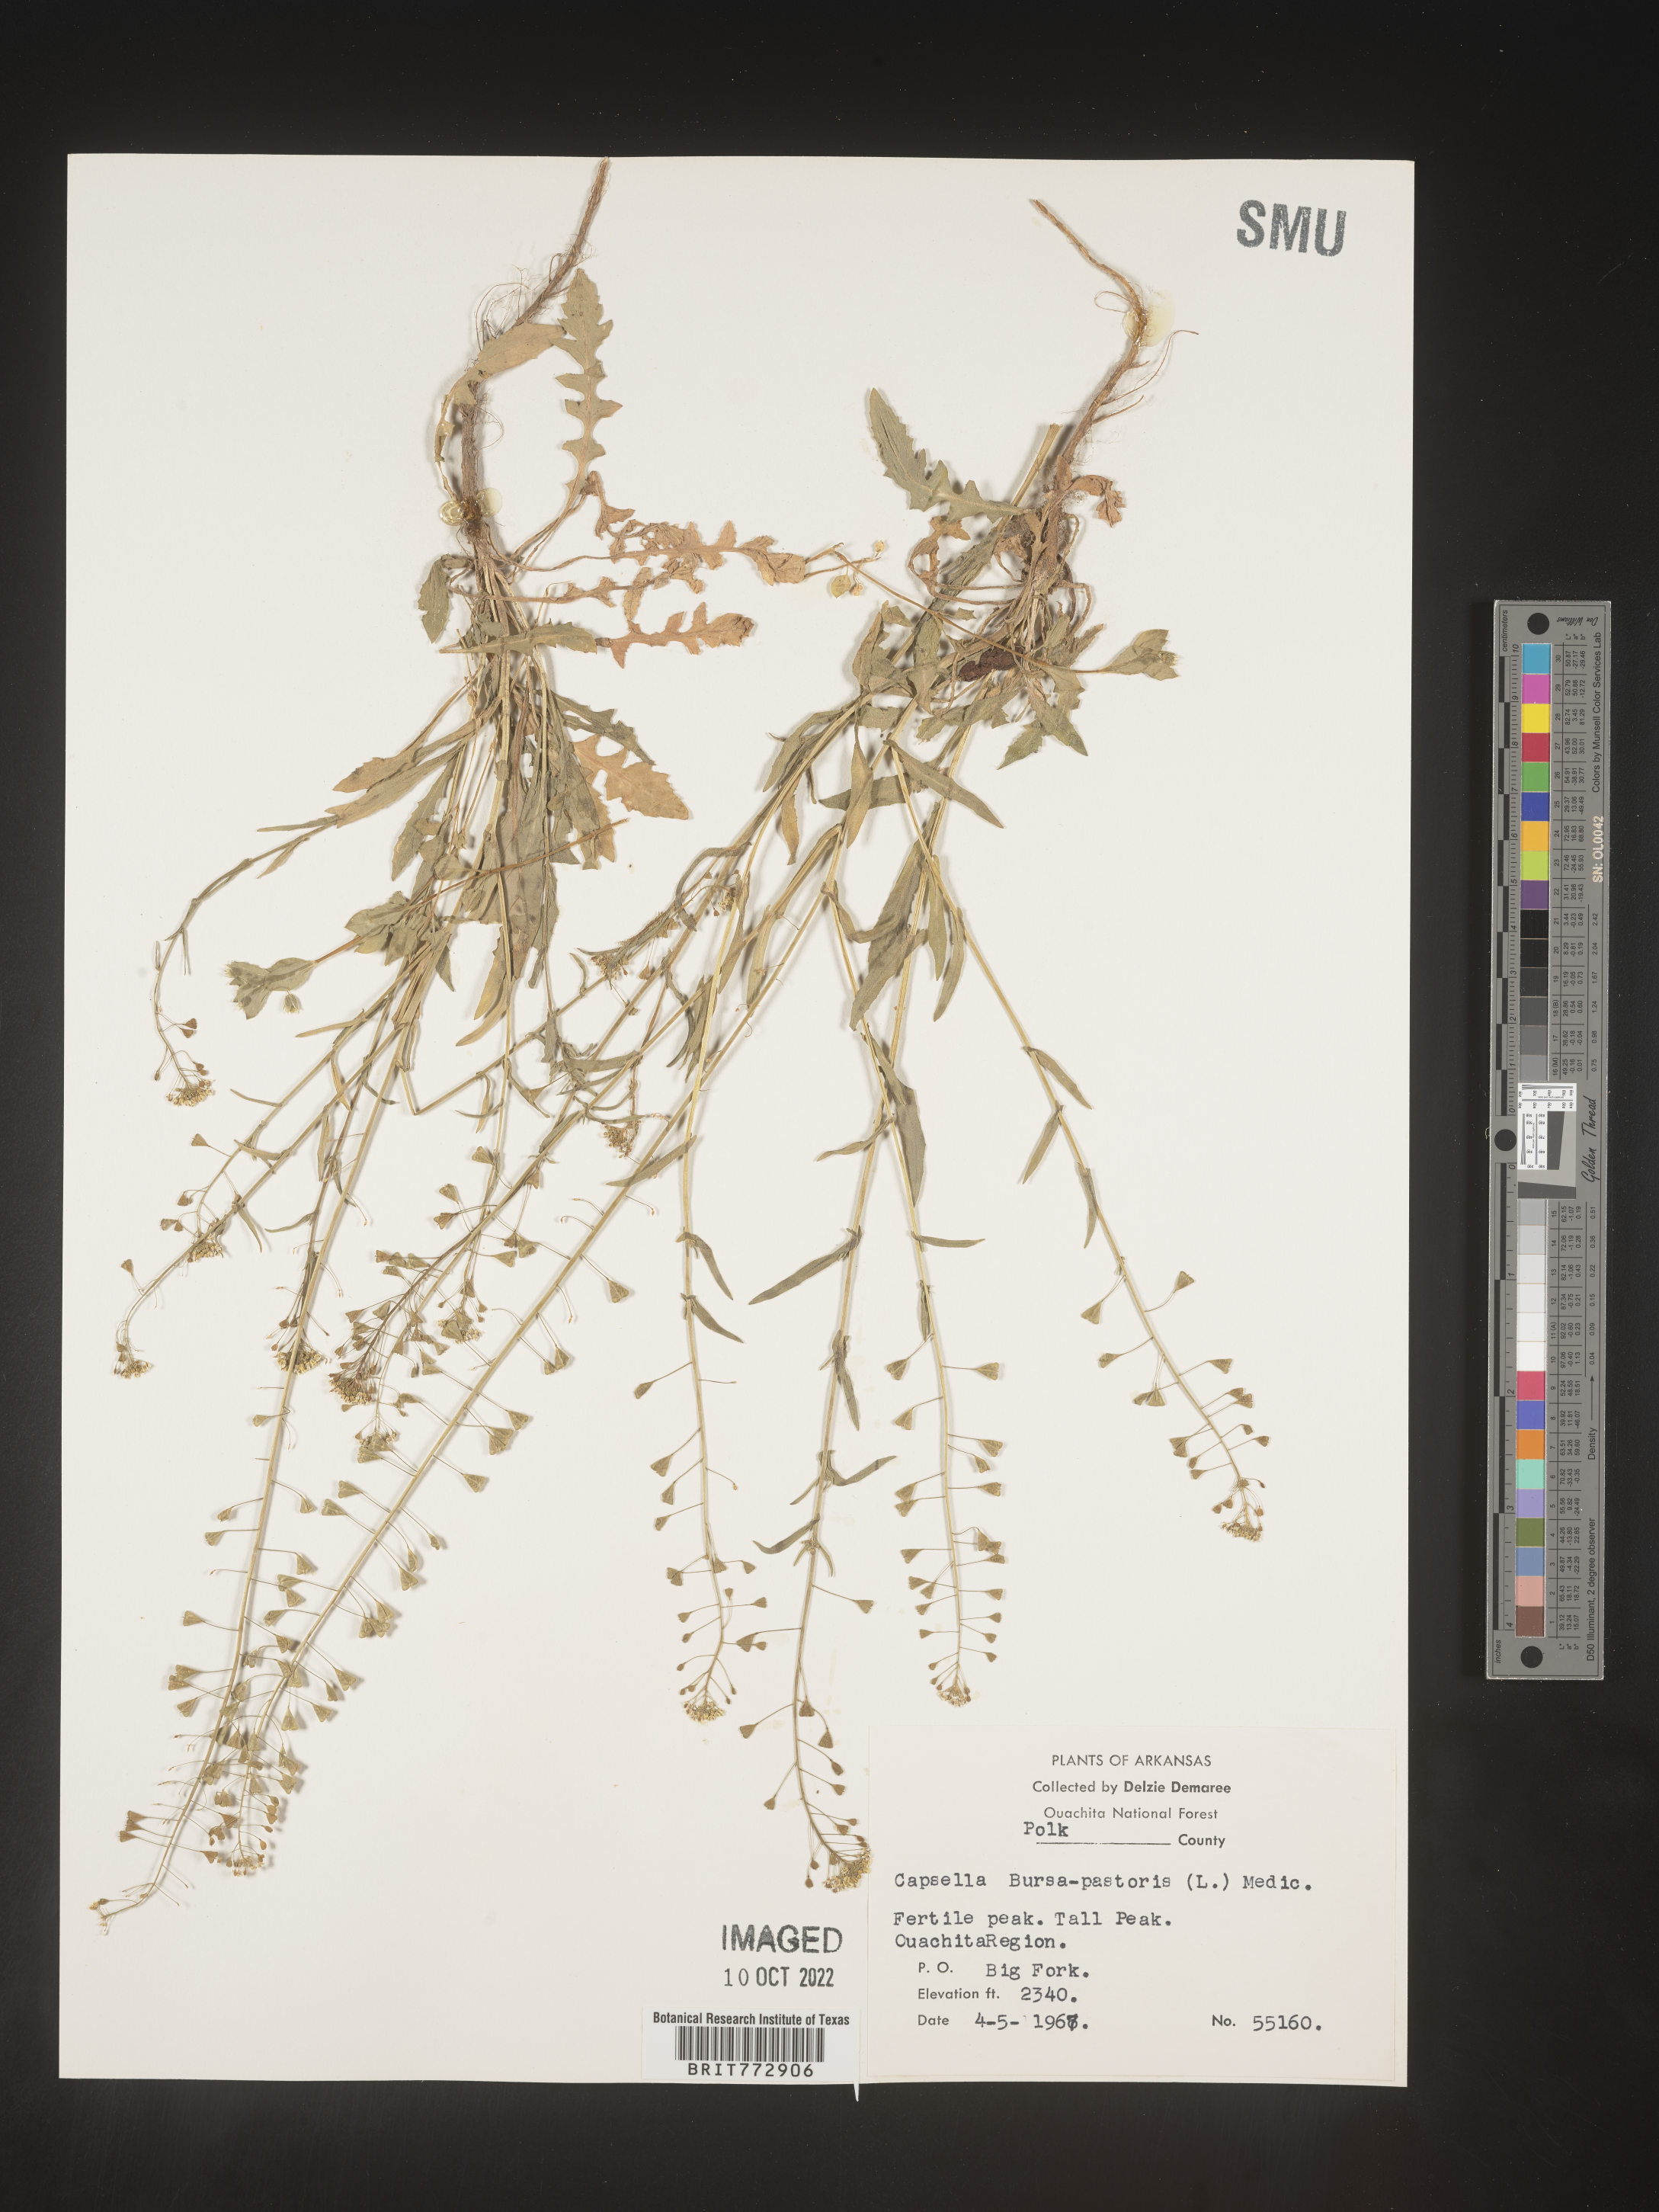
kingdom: Plantae
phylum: Tracheophyta
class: Magnoliopsida
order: Brassicales
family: Brassicaceae
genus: Capsella
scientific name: Capsella bursa-pastoris
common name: Shepherd's purse
